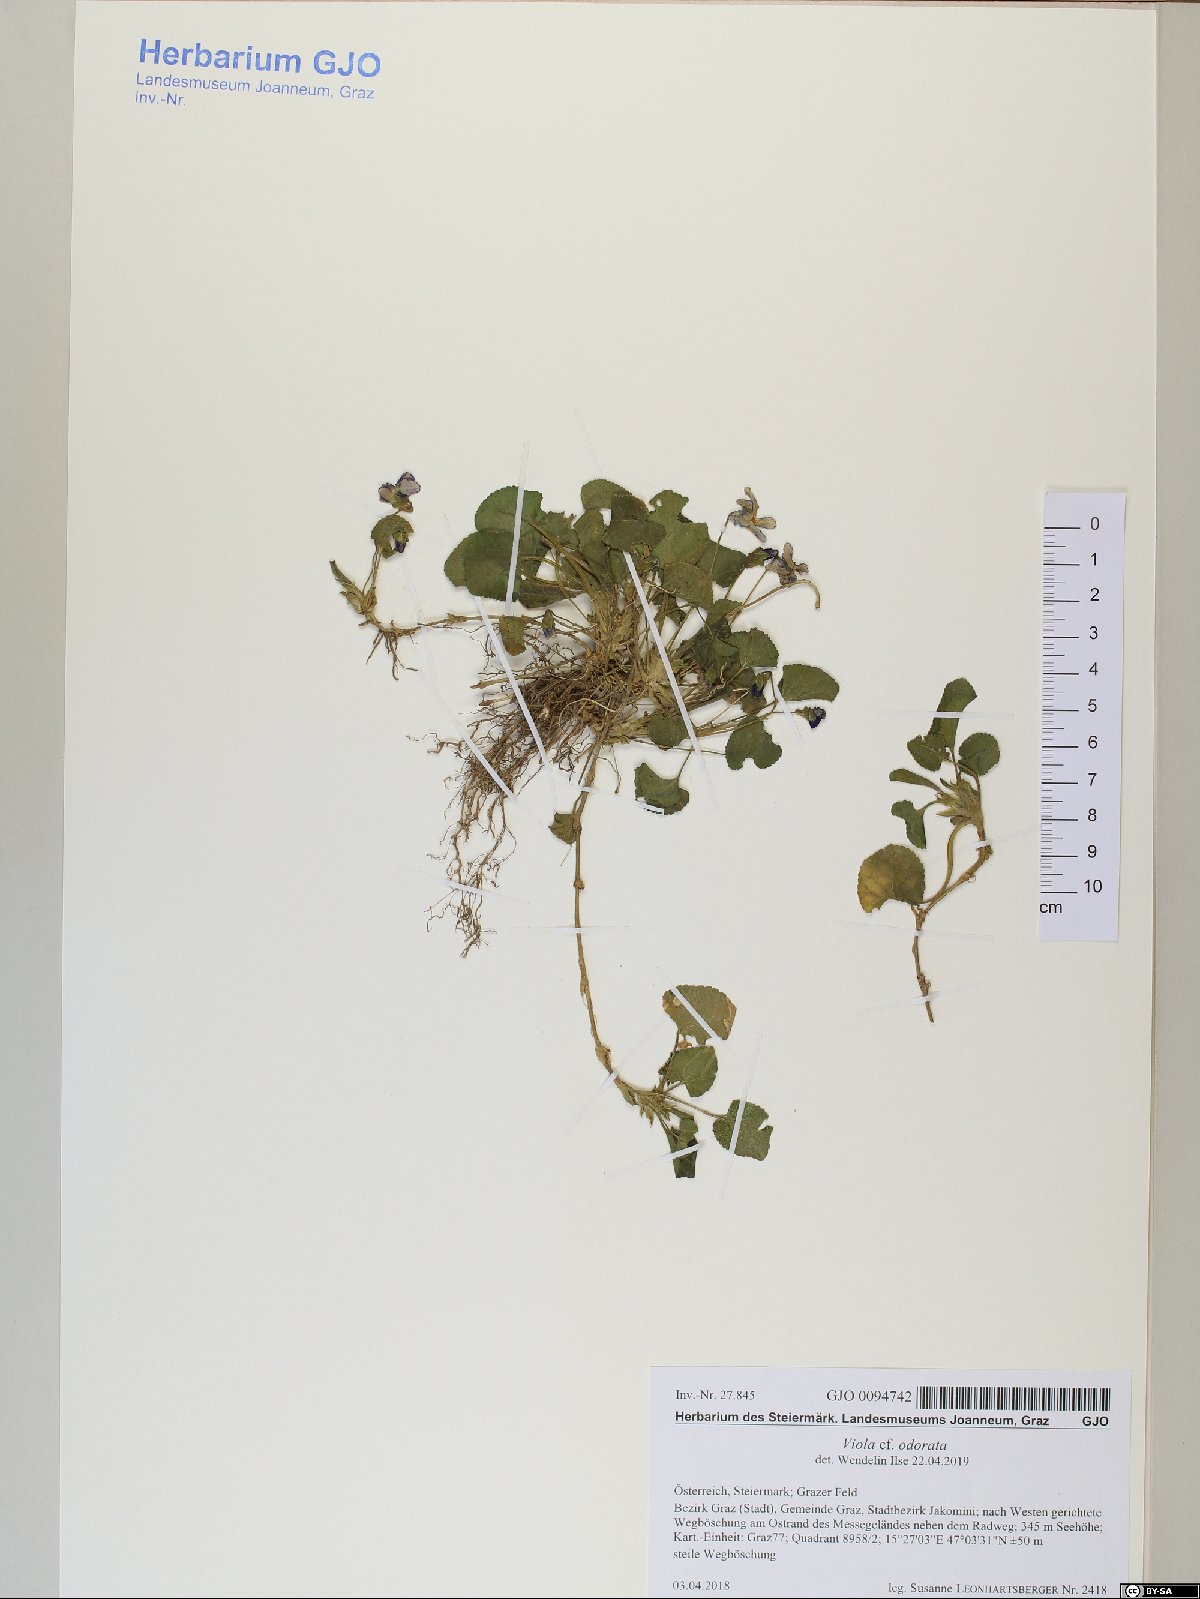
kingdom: Plantae
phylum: Tracheophyta
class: Magnoliopsida
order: Malpighiales
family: Violaceae
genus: Viola
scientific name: Viola odorata
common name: Sweet violet
